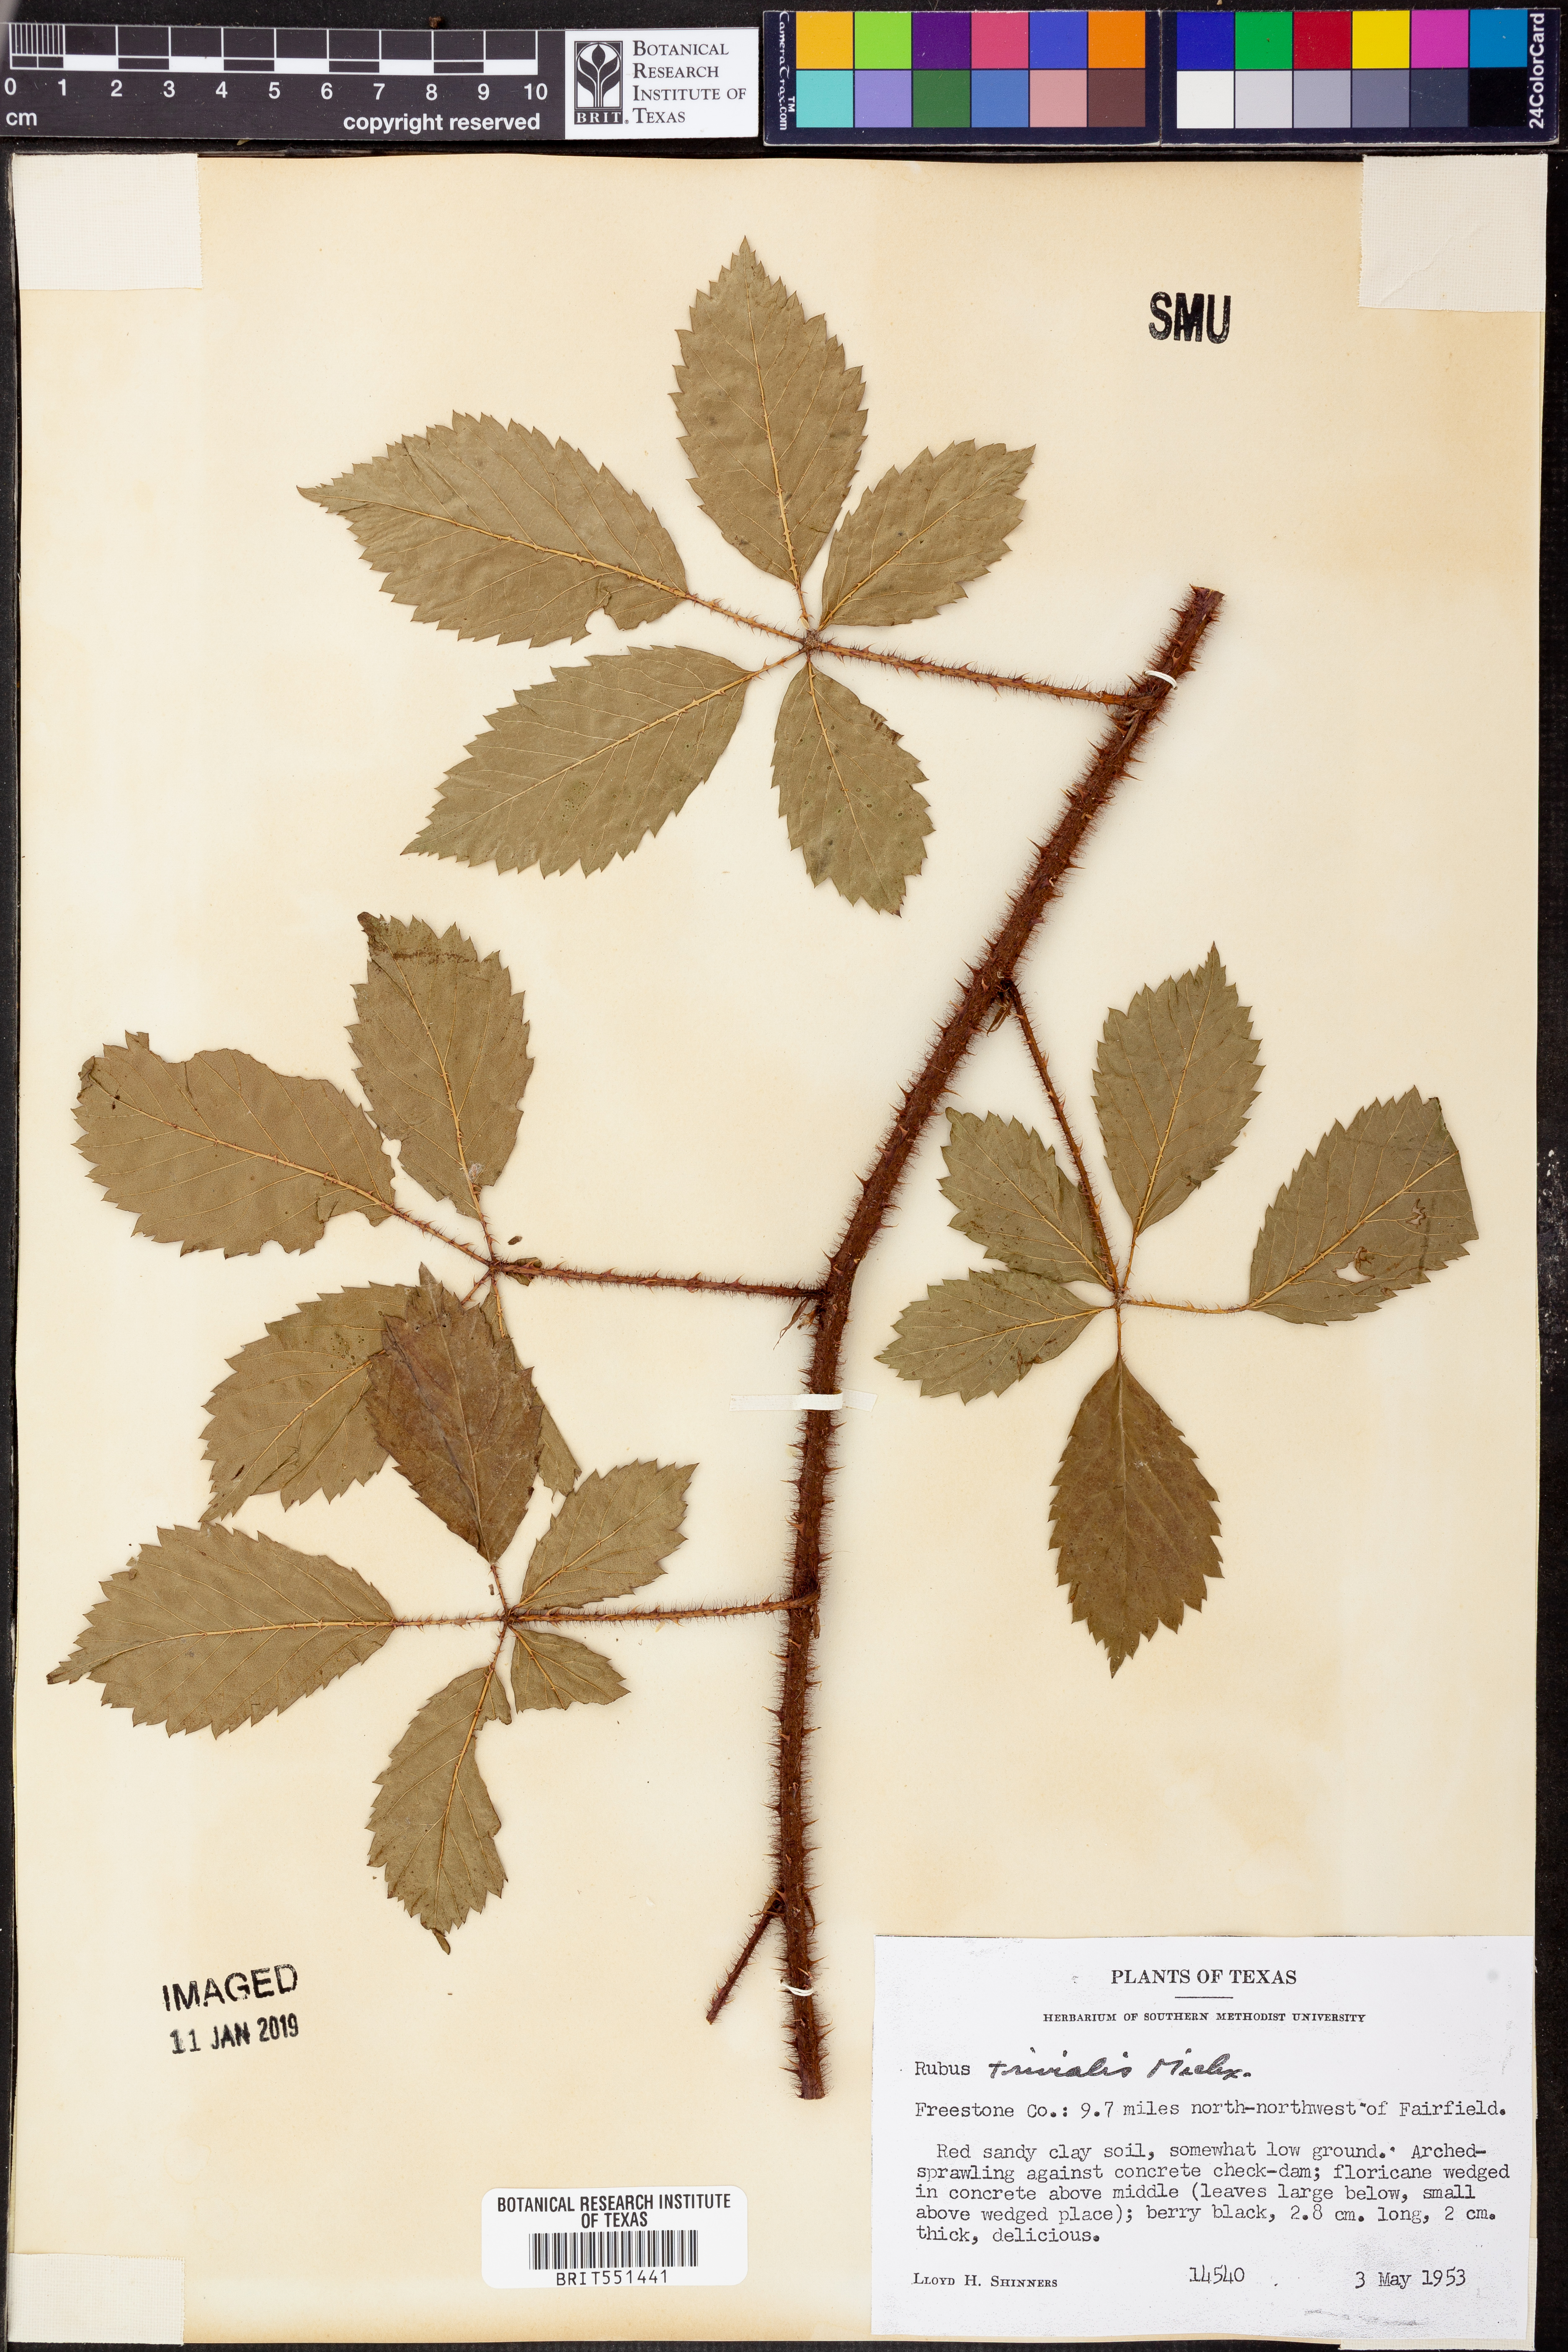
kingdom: Plantae
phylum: Tracheophyta
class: Magnoliopsida
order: Rosales
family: Rosaceae
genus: Rubus
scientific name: Rubus trivialis
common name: Southern dewberry
